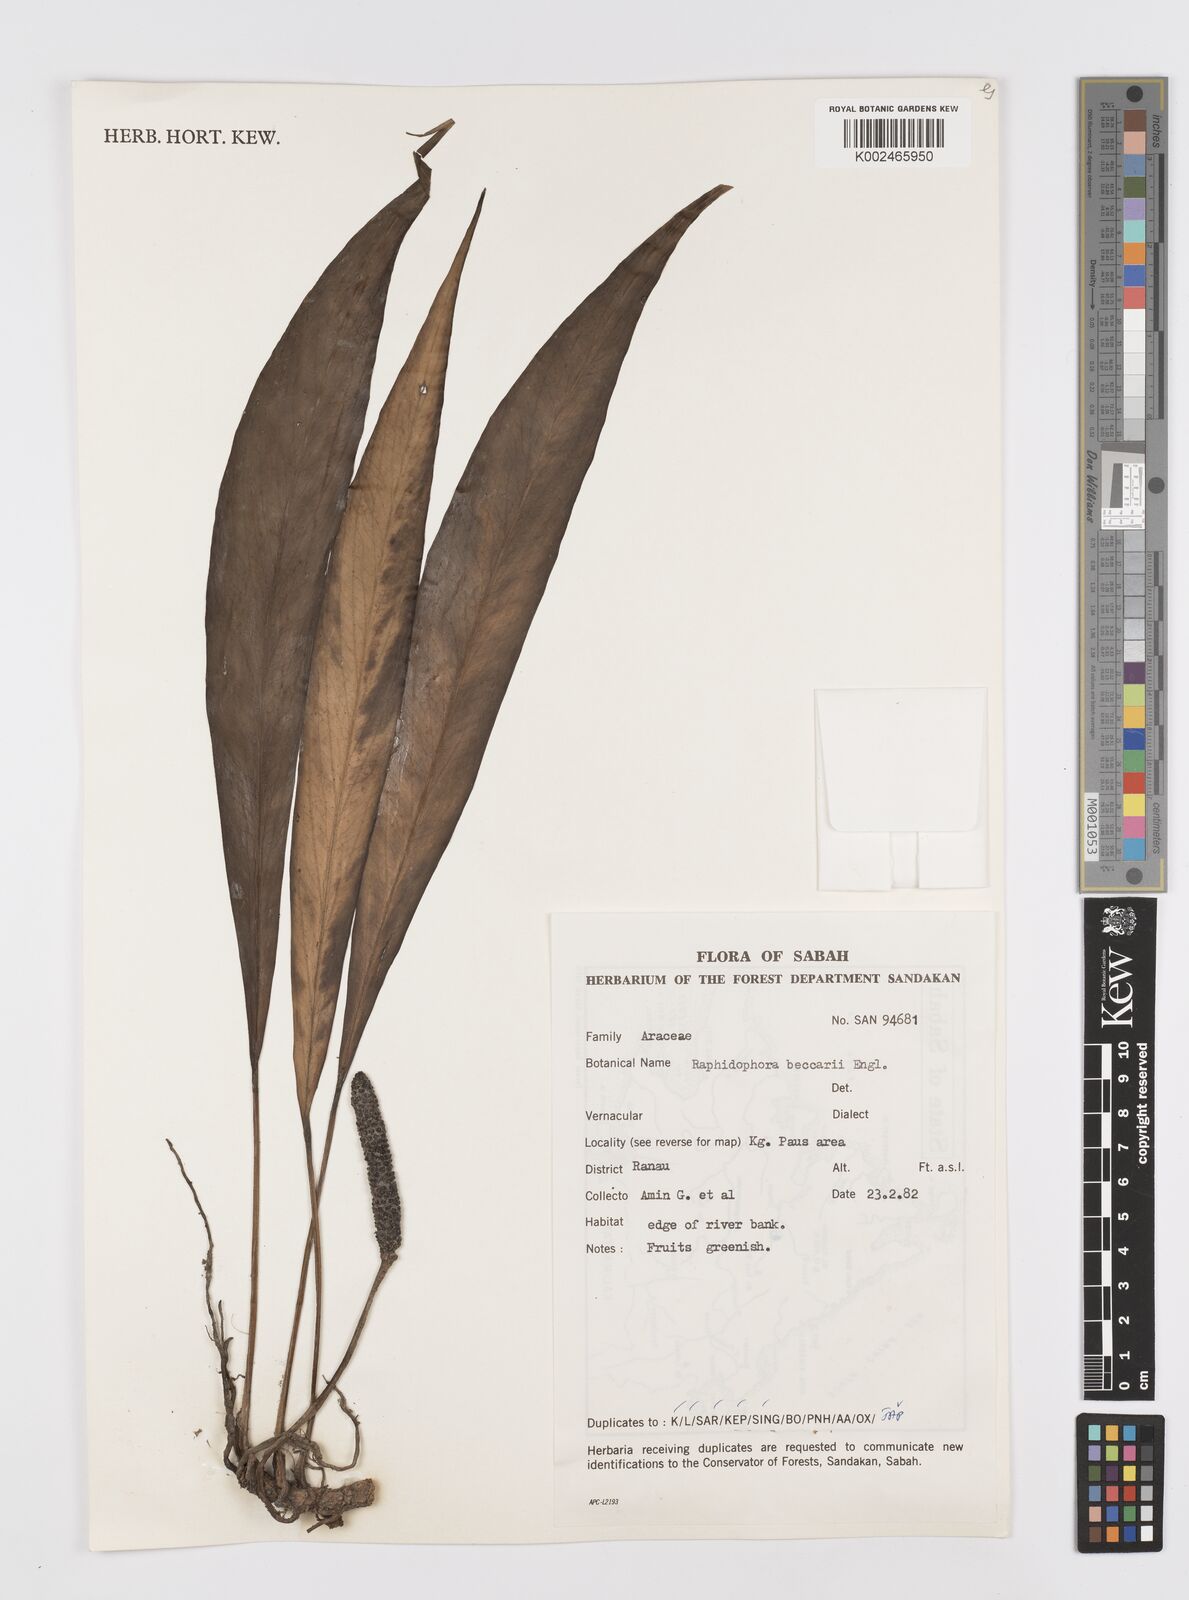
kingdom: Plantae
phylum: Tracheophyta
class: Liliopsida
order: Alismatales
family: Araceae
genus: Rhaphidophora
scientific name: Rhaphidophora beccarii
